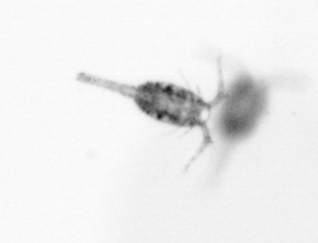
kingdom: Animalia
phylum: Arthropoda
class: Copepoda
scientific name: Copepoda
